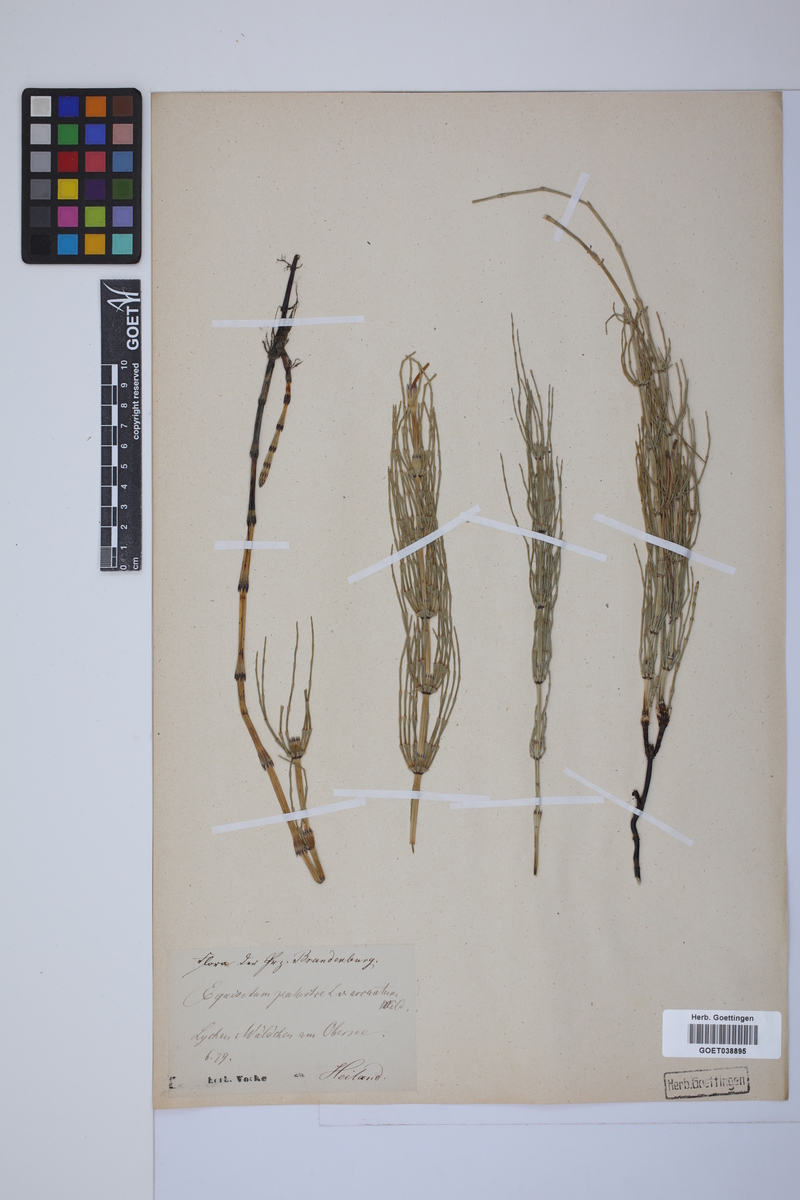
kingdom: Plantae
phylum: Tracheophyta
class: Polypodiopsida
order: Equisetales
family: Equisetaceae
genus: Equisetum
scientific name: Equisetum palustre
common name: Marsh horsetail
